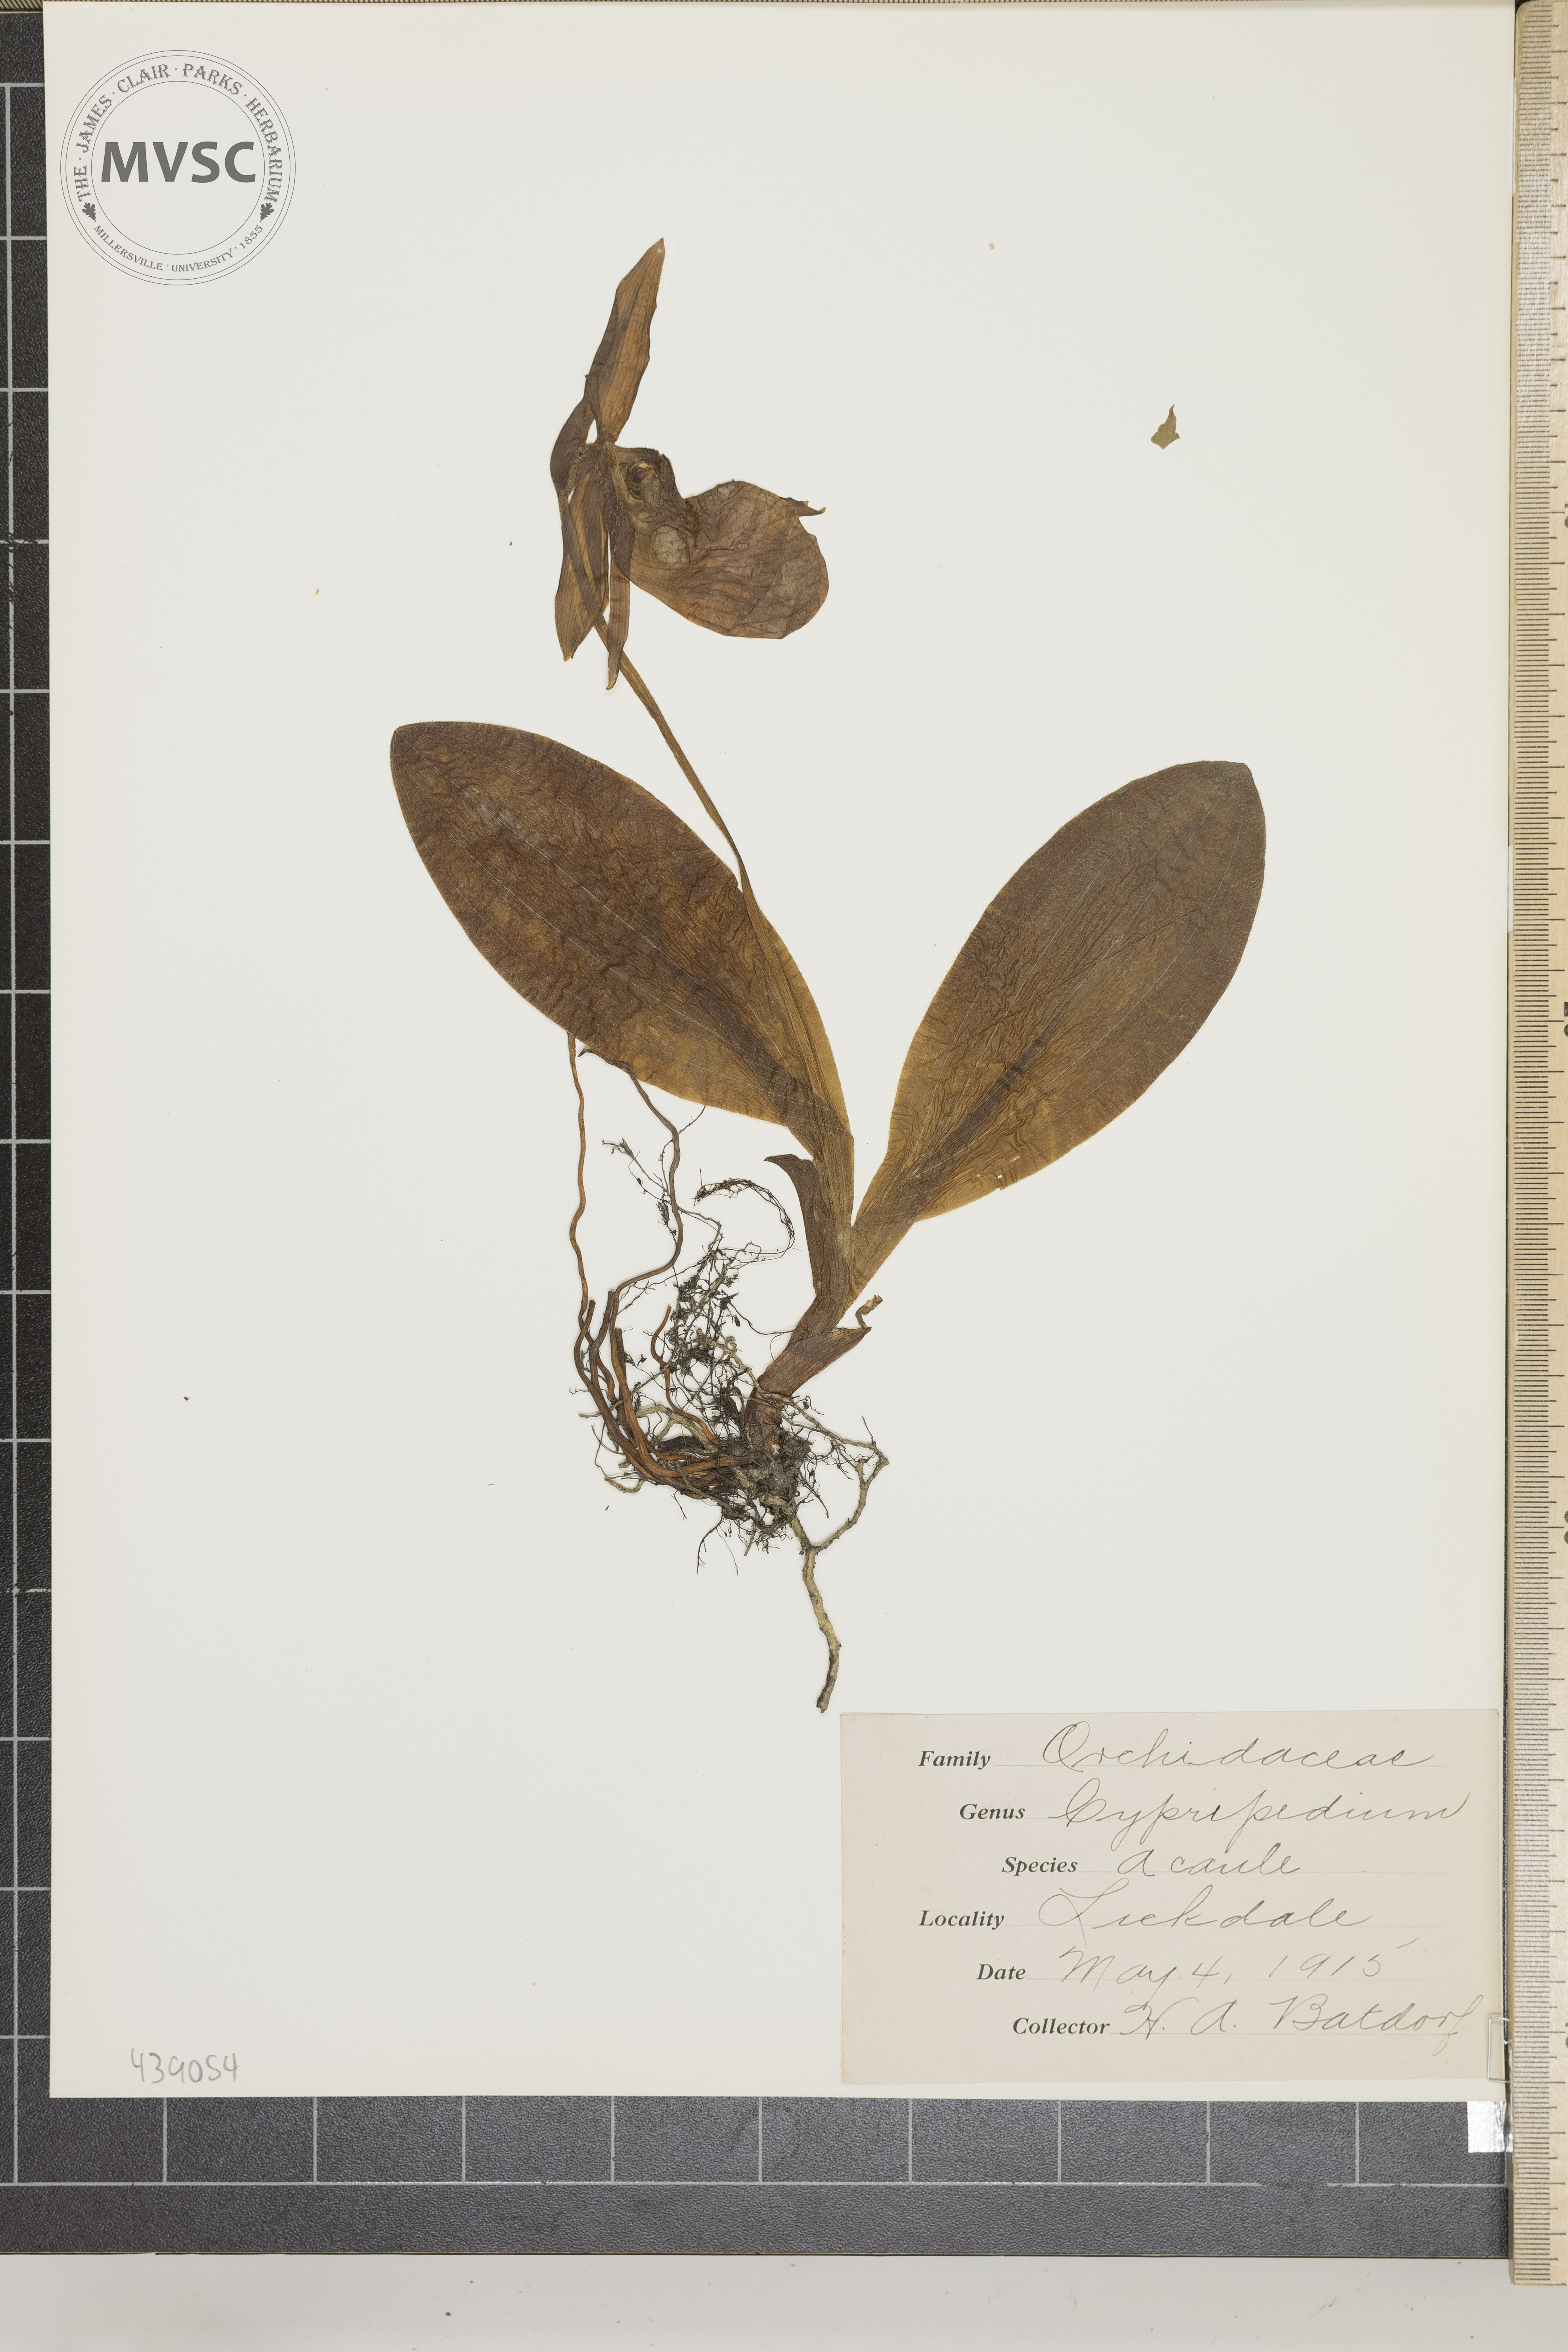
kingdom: Plantae
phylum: Tracheophyta
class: Liliopsida
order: Asparagales
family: Orchidaceae
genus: Cypripedium
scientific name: Cypripedium acaule
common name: Pink lady's-slipper
